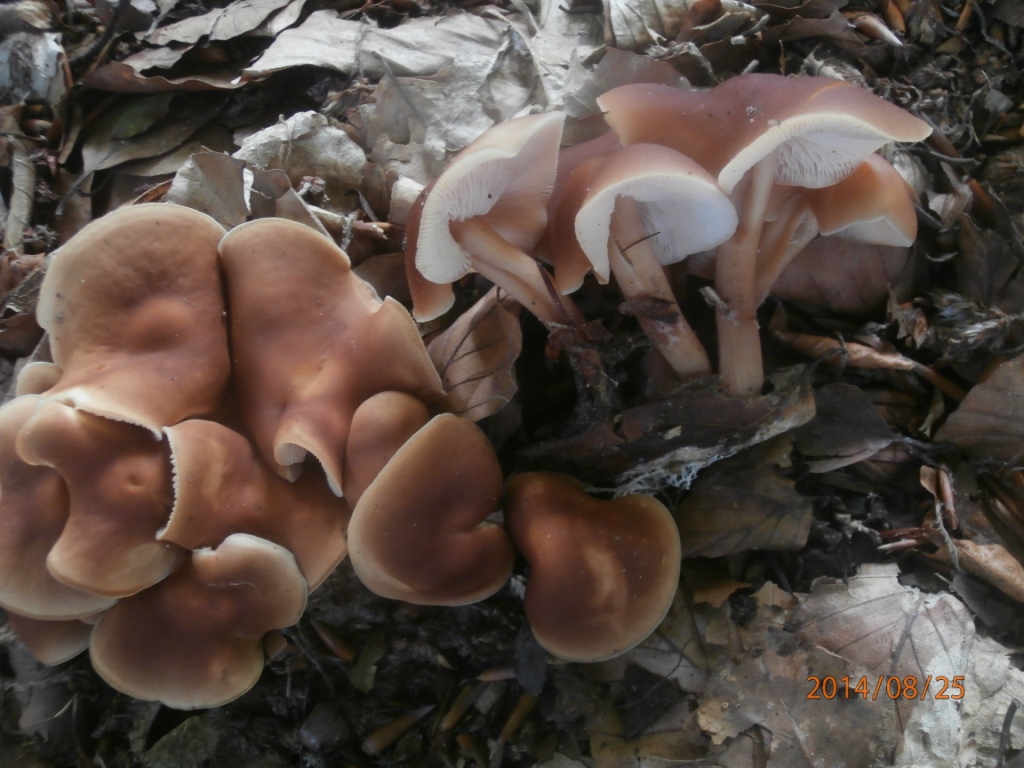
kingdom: Fungi
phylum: Basidiomycota
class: Agaricomycetes
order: Agaricales
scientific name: Agaricales
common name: champignonordenen
